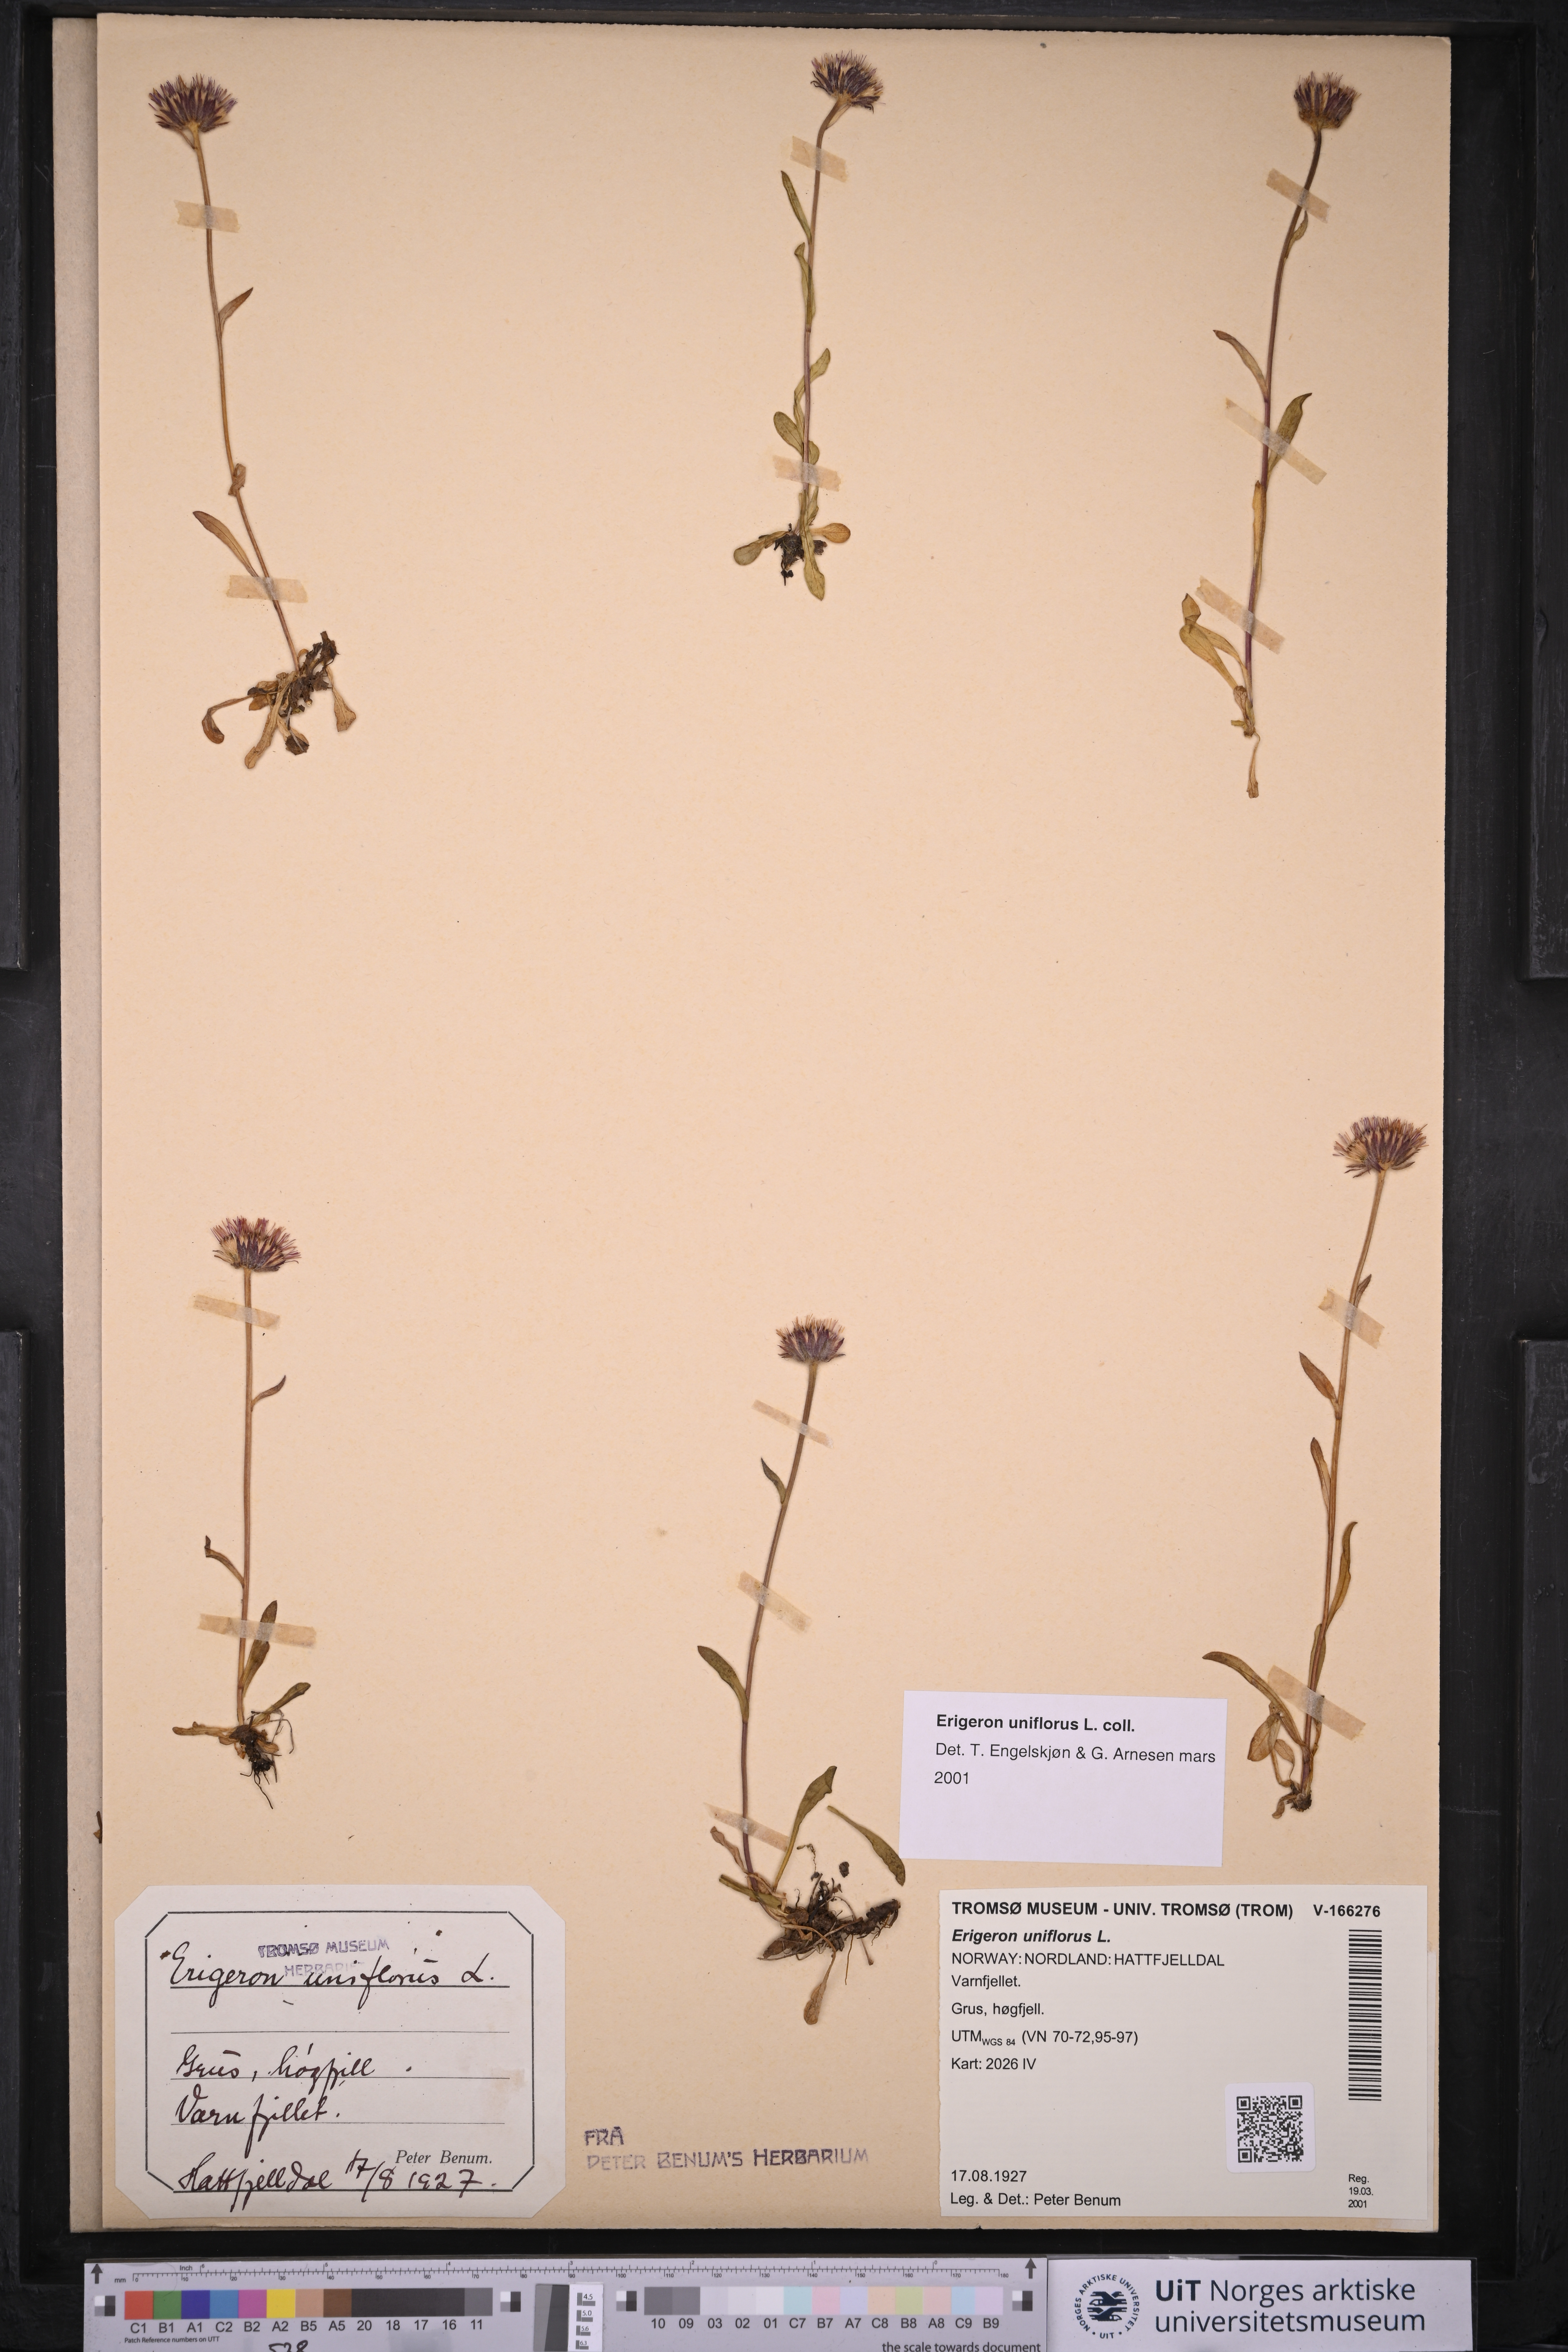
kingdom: Plantae
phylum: Tracheophyta
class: Magnoliopsida
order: Asterales
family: Asteraceae
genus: Erigeron
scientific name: Erigeron uniflorus
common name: Northern daisy
